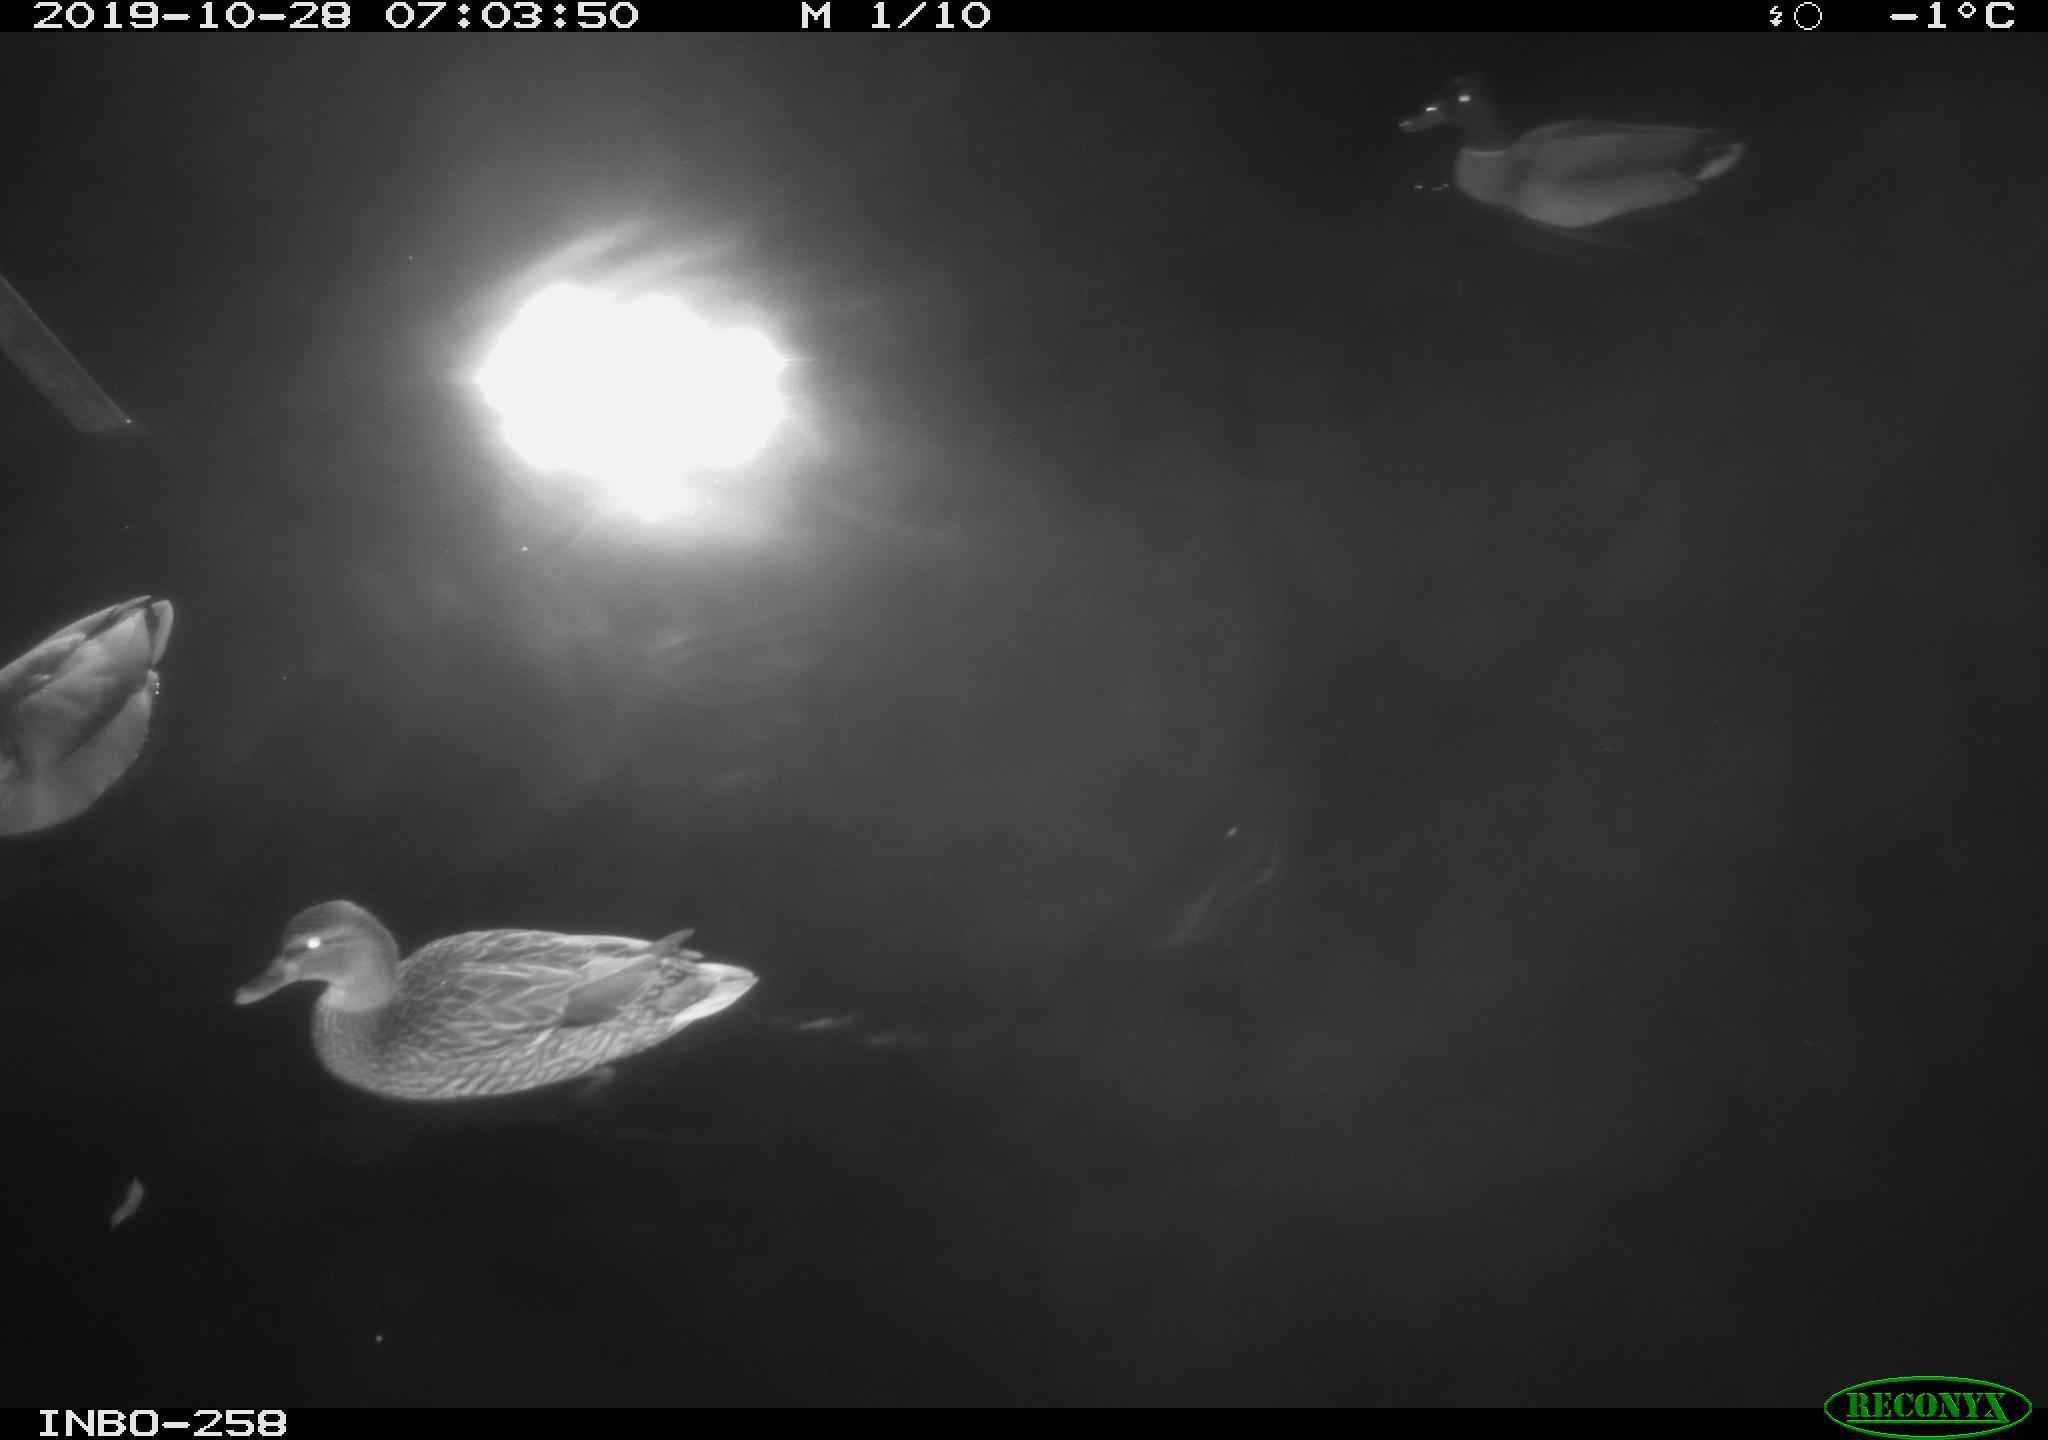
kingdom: Animalia
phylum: Chordata
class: Aves
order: Anseriformes
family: Anatidae
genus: Anas
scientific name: Anas platyrhynchos
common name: Mallard
